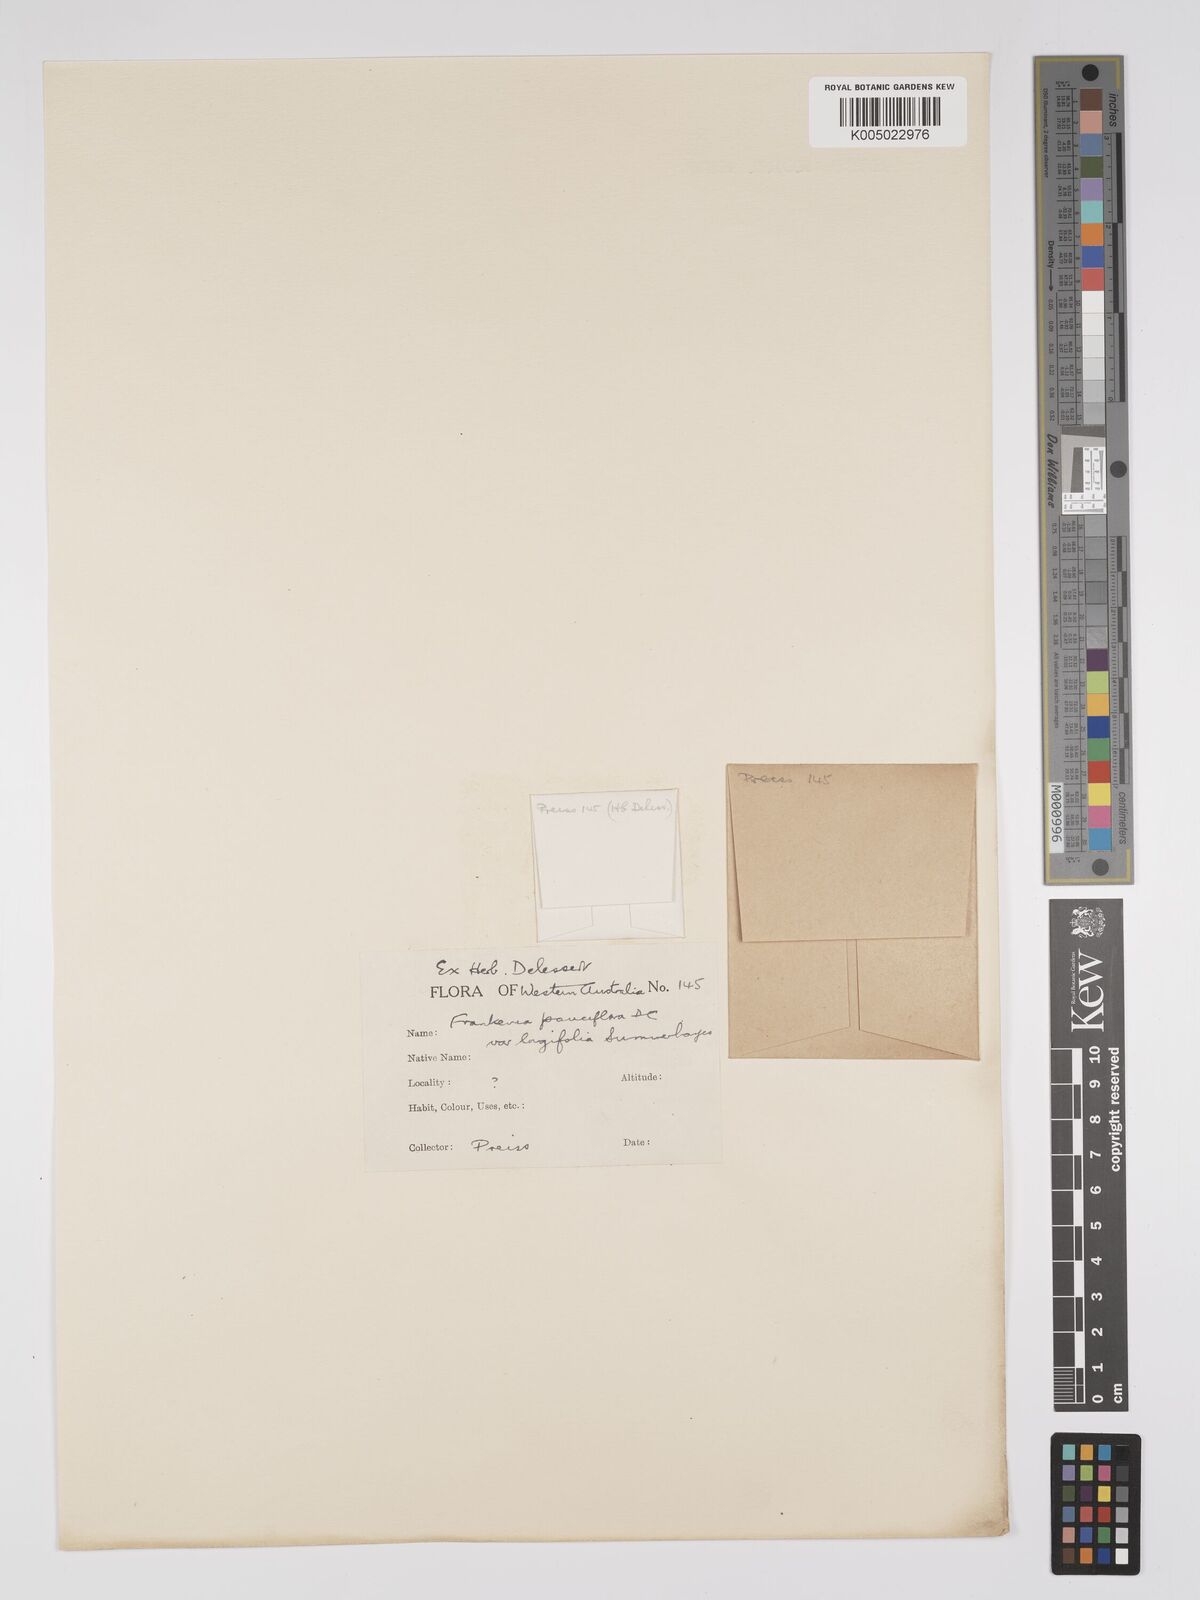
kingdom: Plantae
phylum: Tracheophyta
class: Magnoliopsida
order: Caryophyllales
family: Frankeniaceae
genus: Frankenia
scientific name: Frankenia pauciflora
